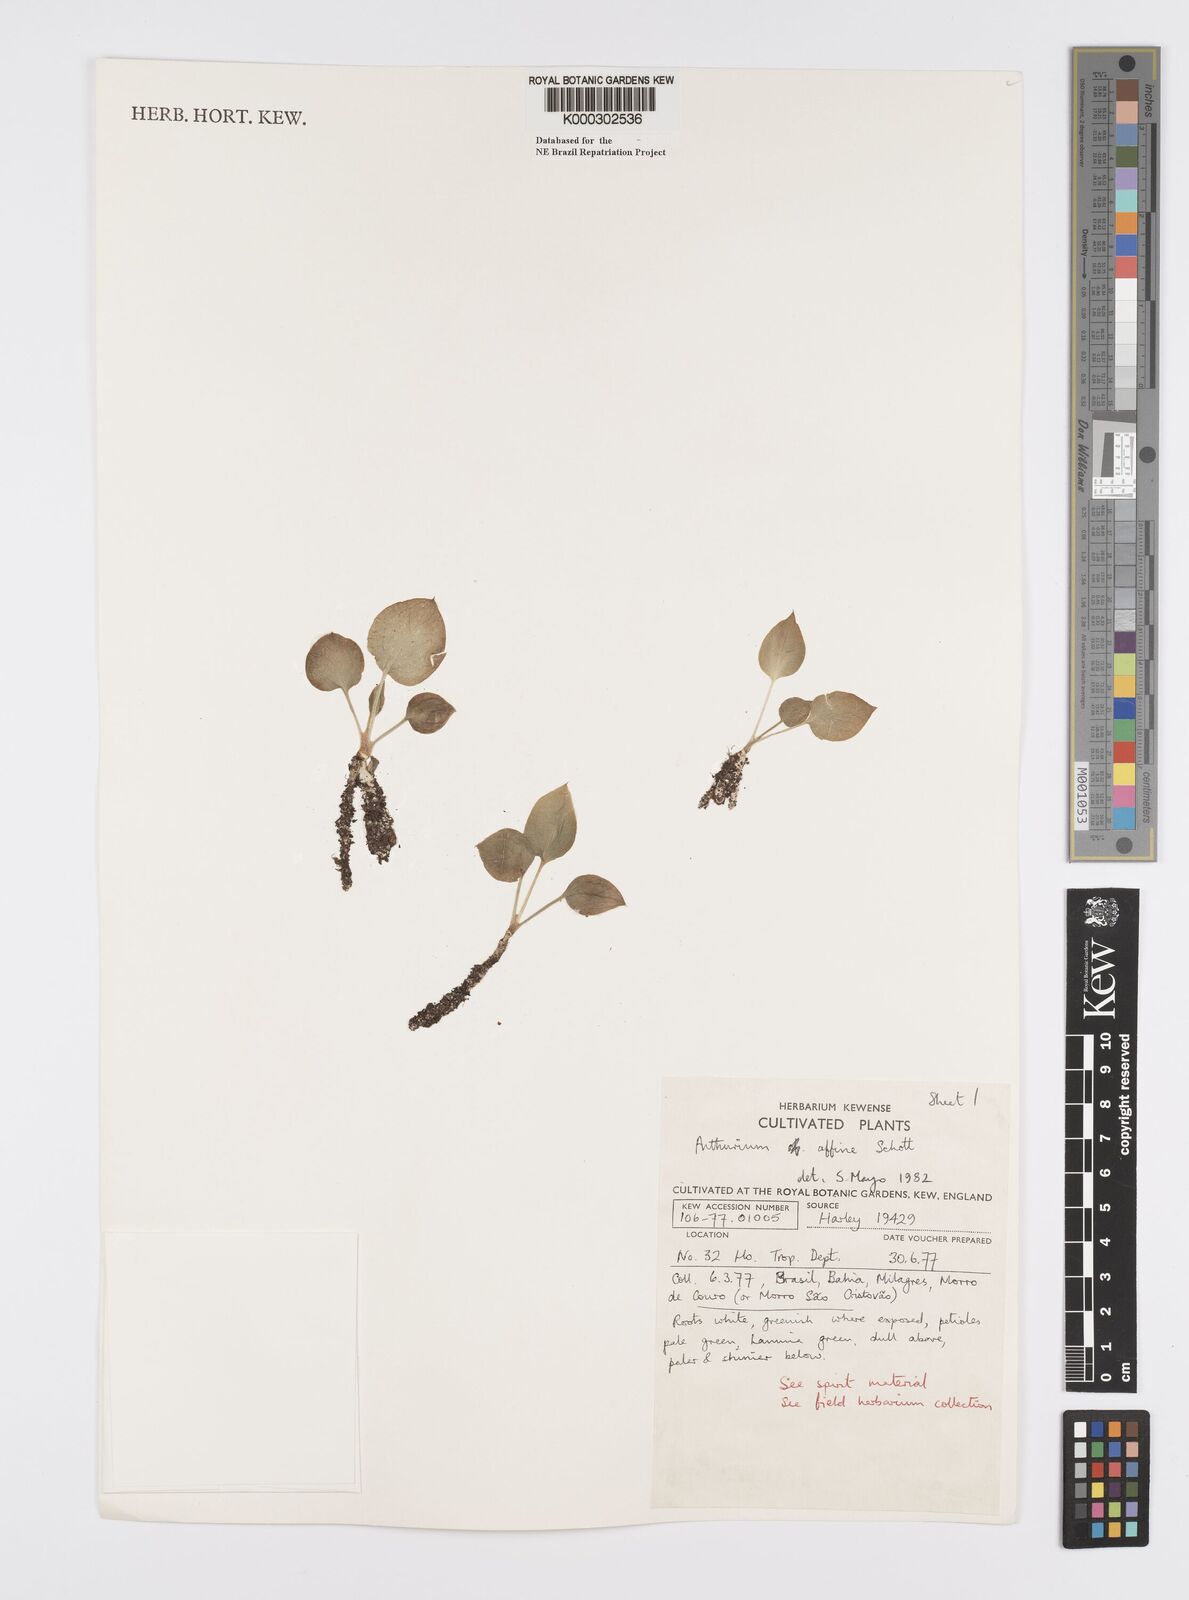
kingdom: Plantae
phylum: Tracheophyta
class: Liliopsida
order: Alismatales
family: Araceae
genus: Anthurium
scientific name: Anthurium affine
